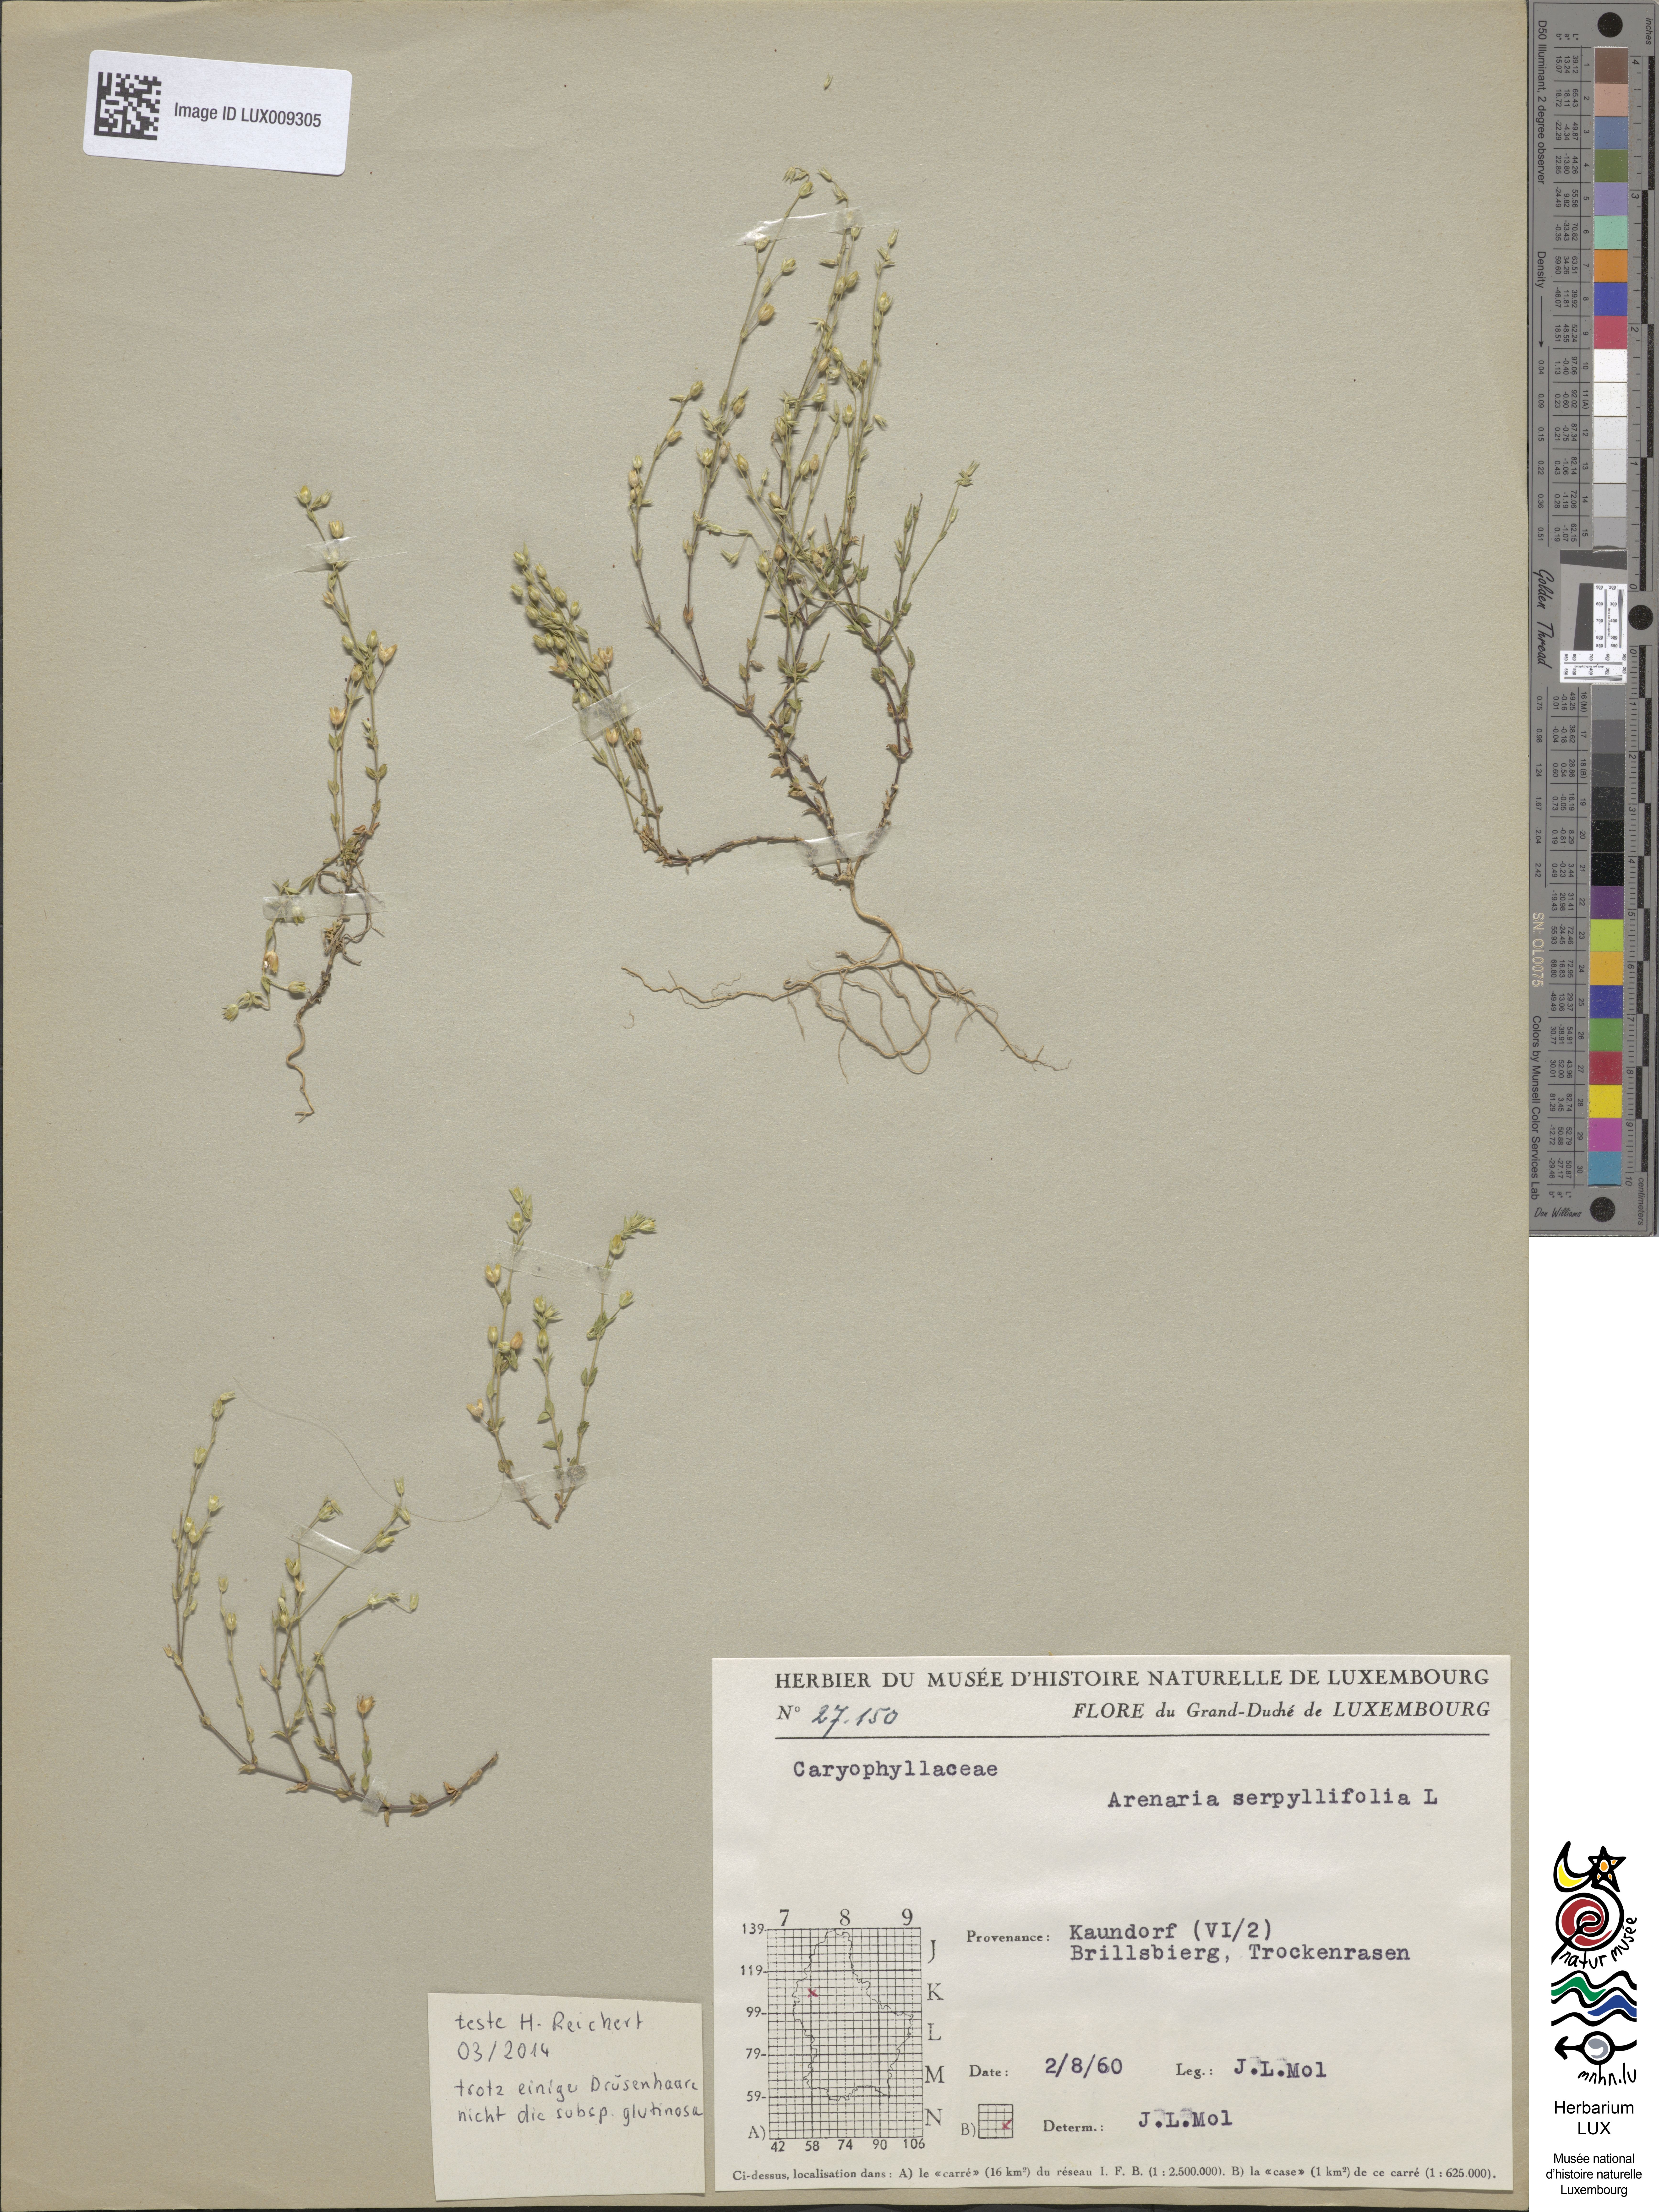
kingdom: Plantae
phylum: Tracheophyta
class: Magnoliopsida
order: Caryophyllales
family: Caryophyllaceae
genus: Arenaria
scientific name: Arenaria serpyllifolia
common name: Thyme-leaved sandwort
